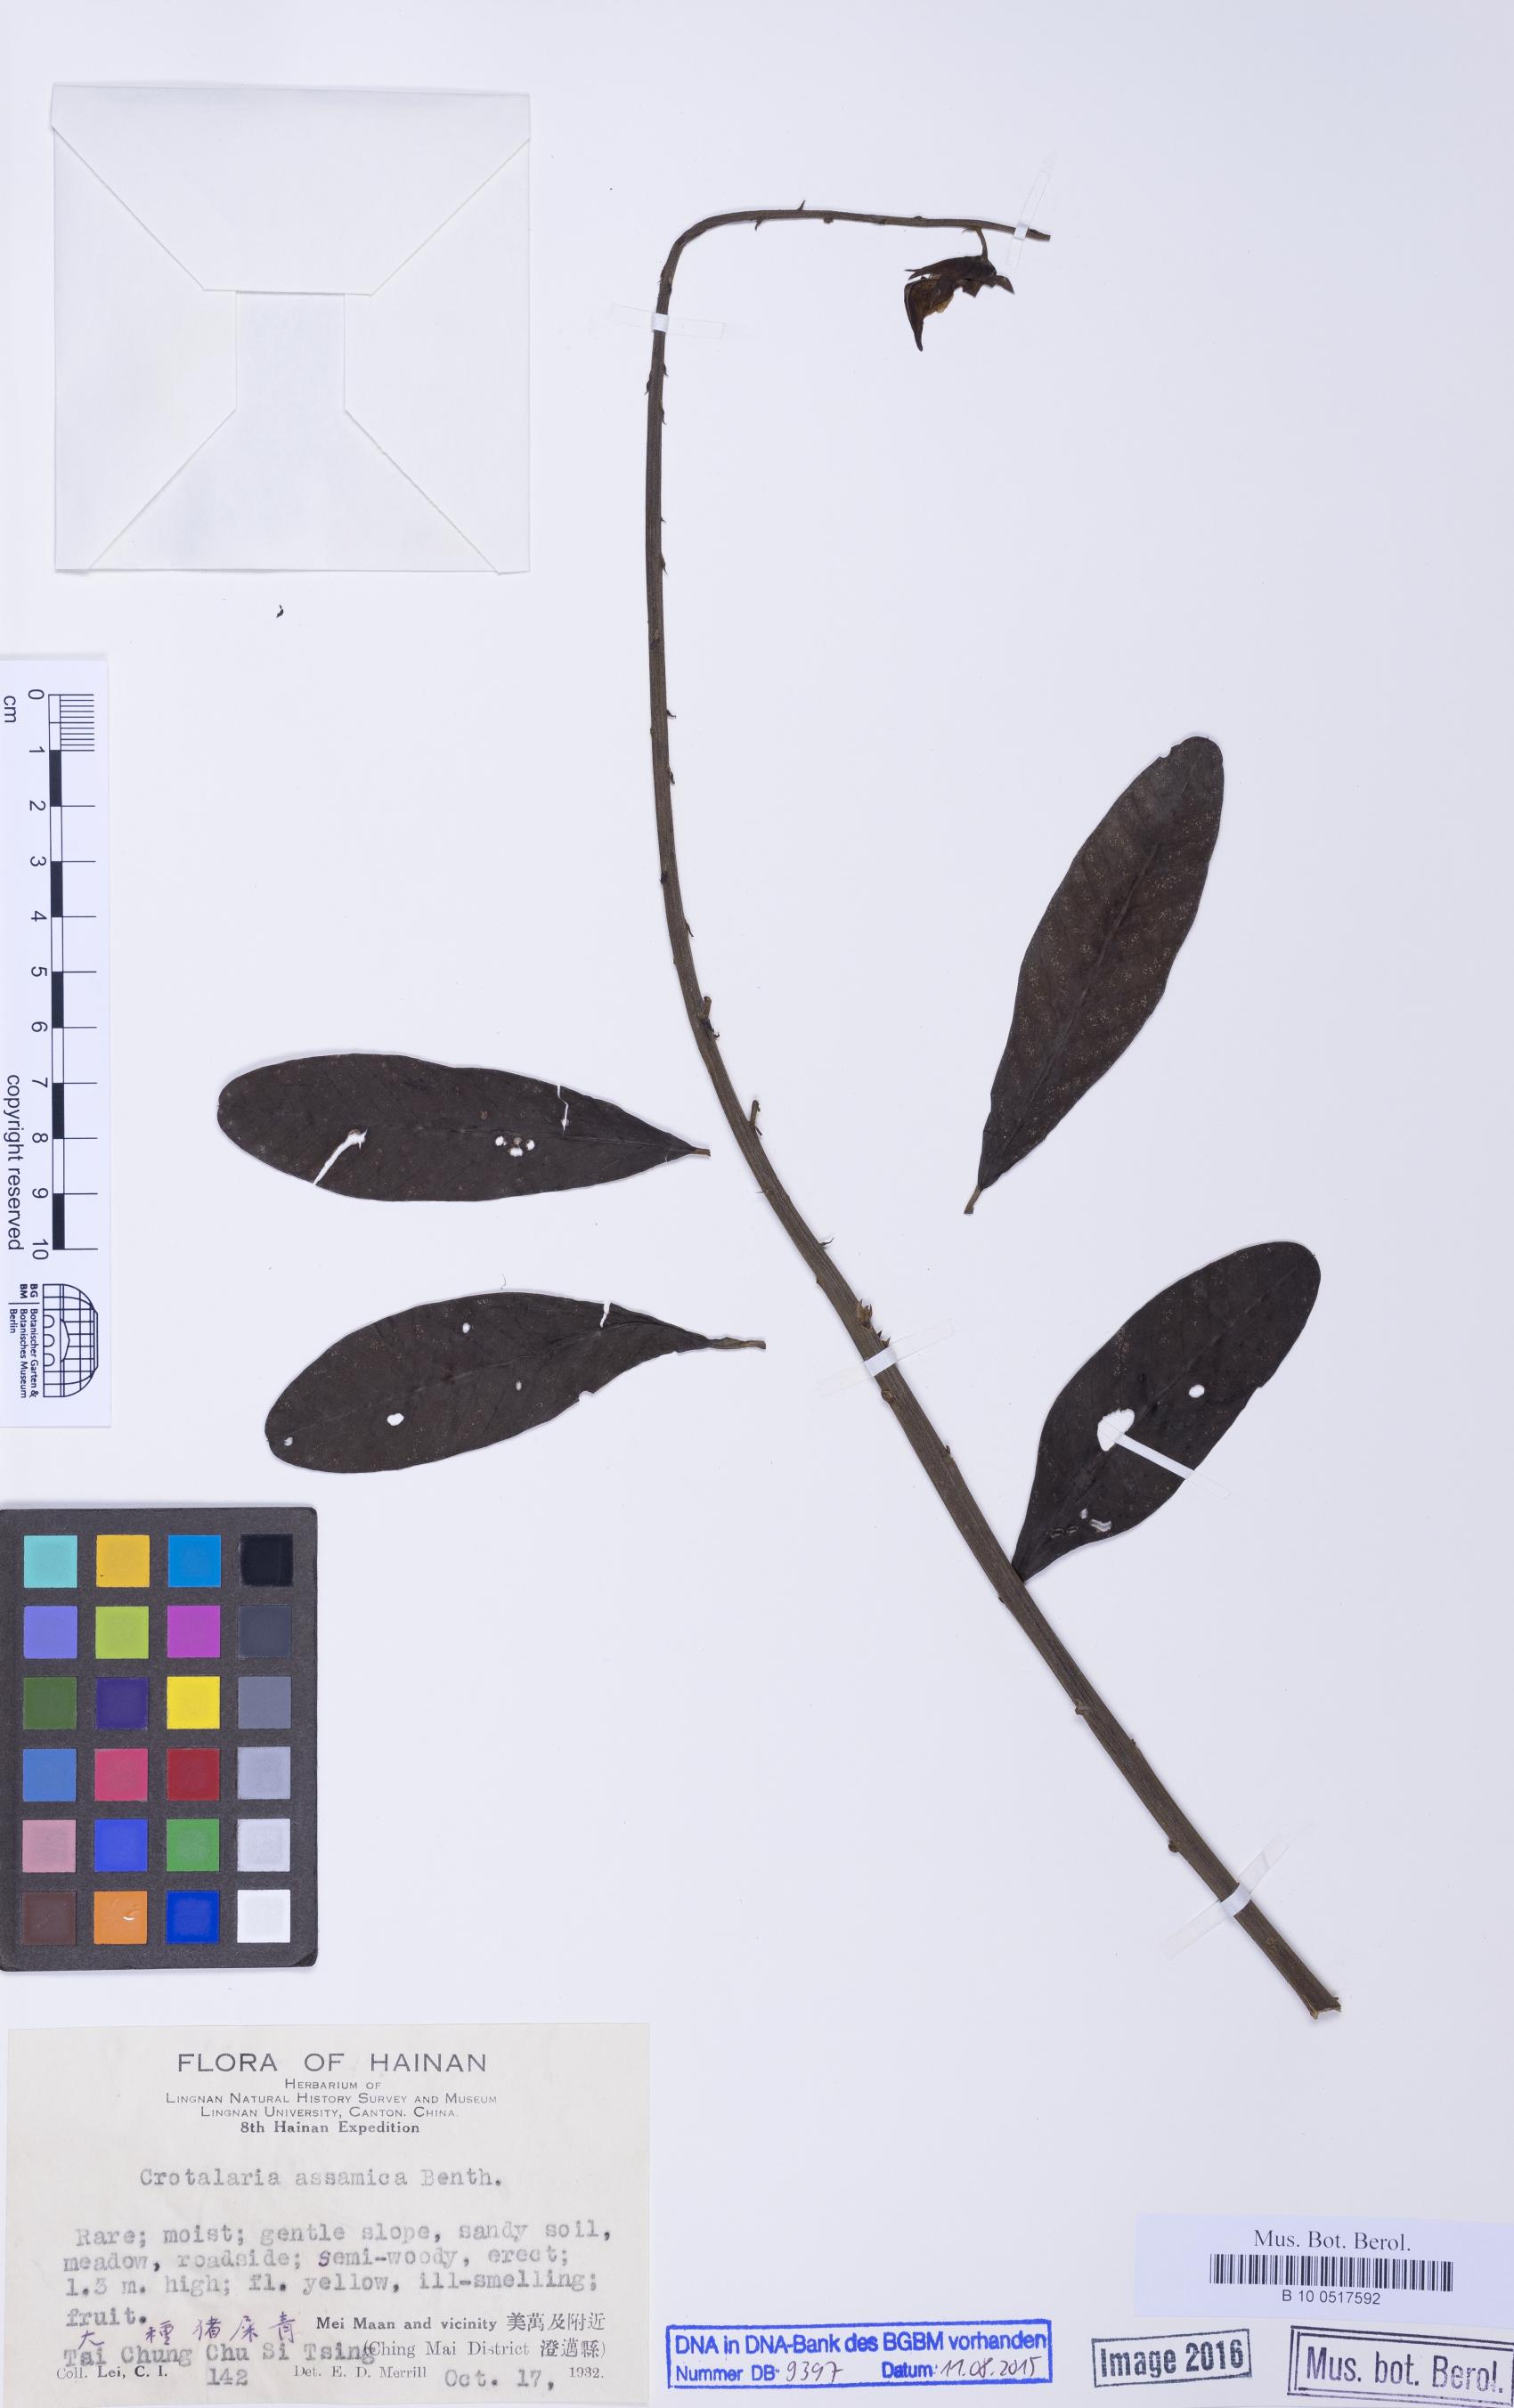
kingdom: Plantae
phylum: Tracheophyta
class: Magnoliopsida
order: Fabales
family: Fabaceae
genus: Crotalaria
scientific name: Crotalaria sericea
